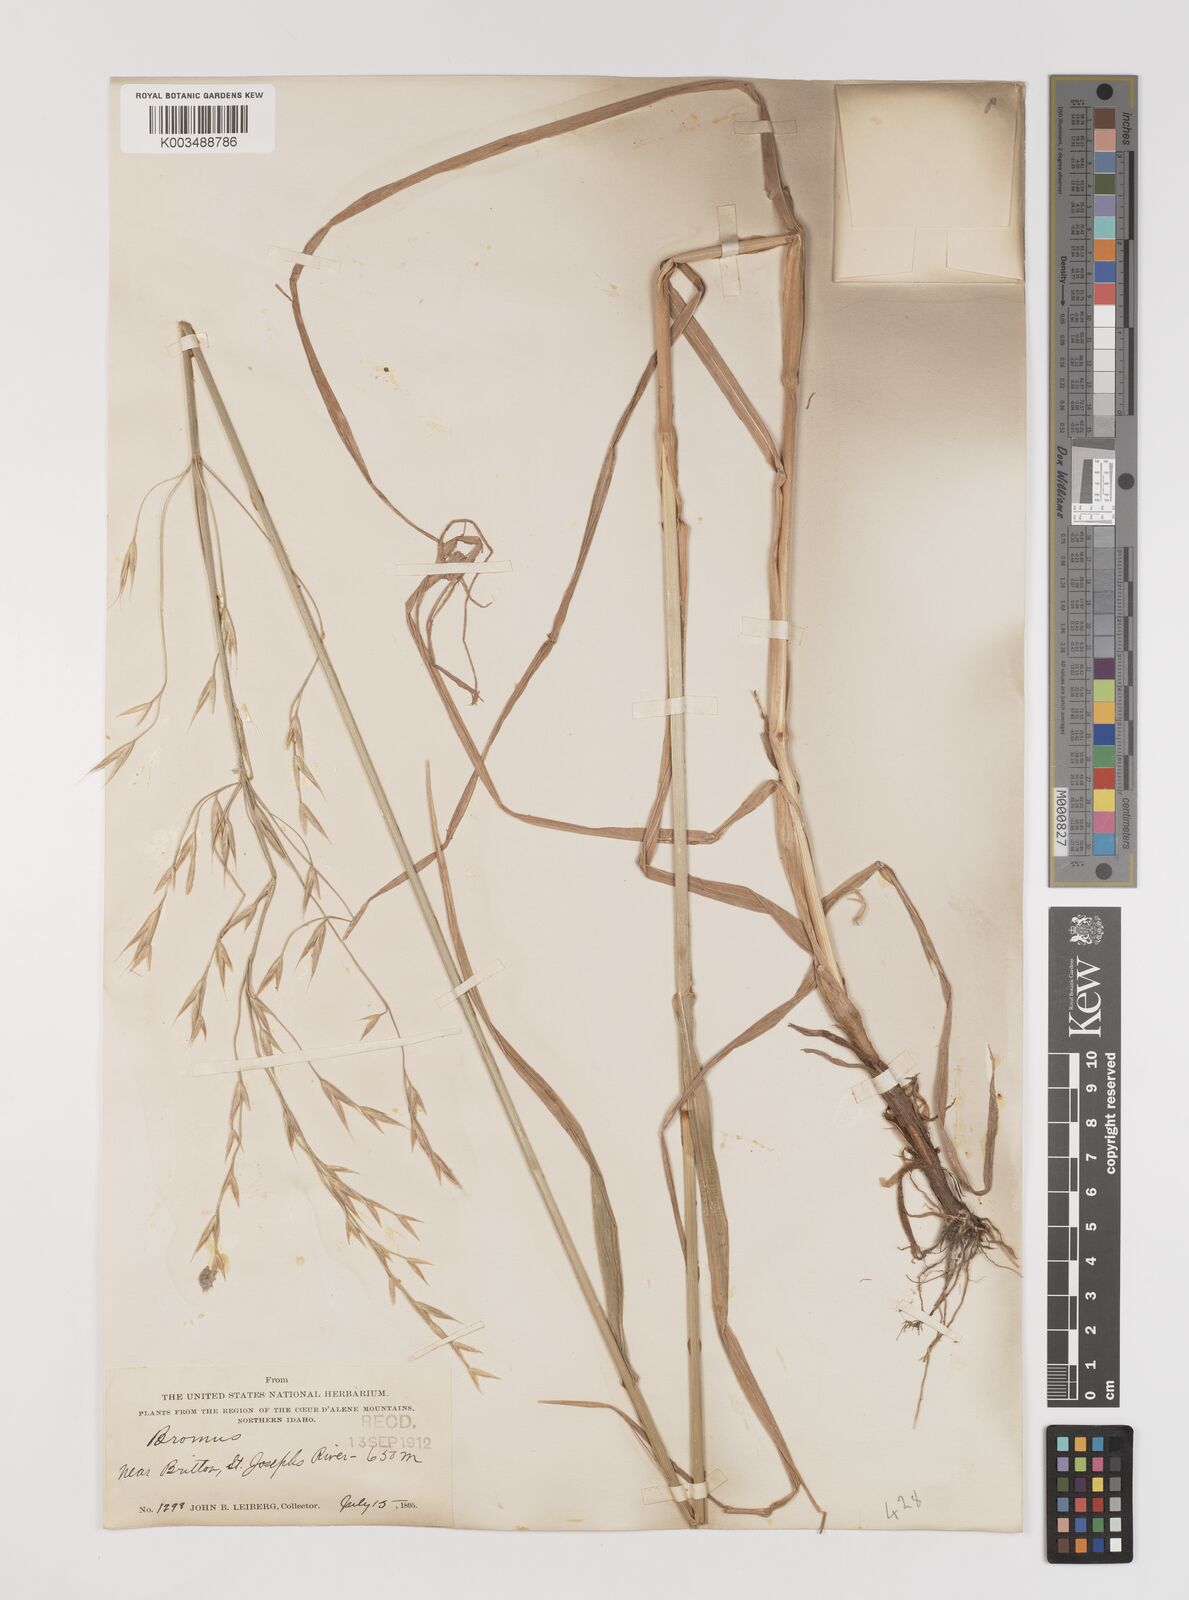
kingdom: Plantae
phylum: Tracheophyta
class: Liliopsida
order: Poales
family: Poaceae
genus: Bromus
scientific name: Bromus
